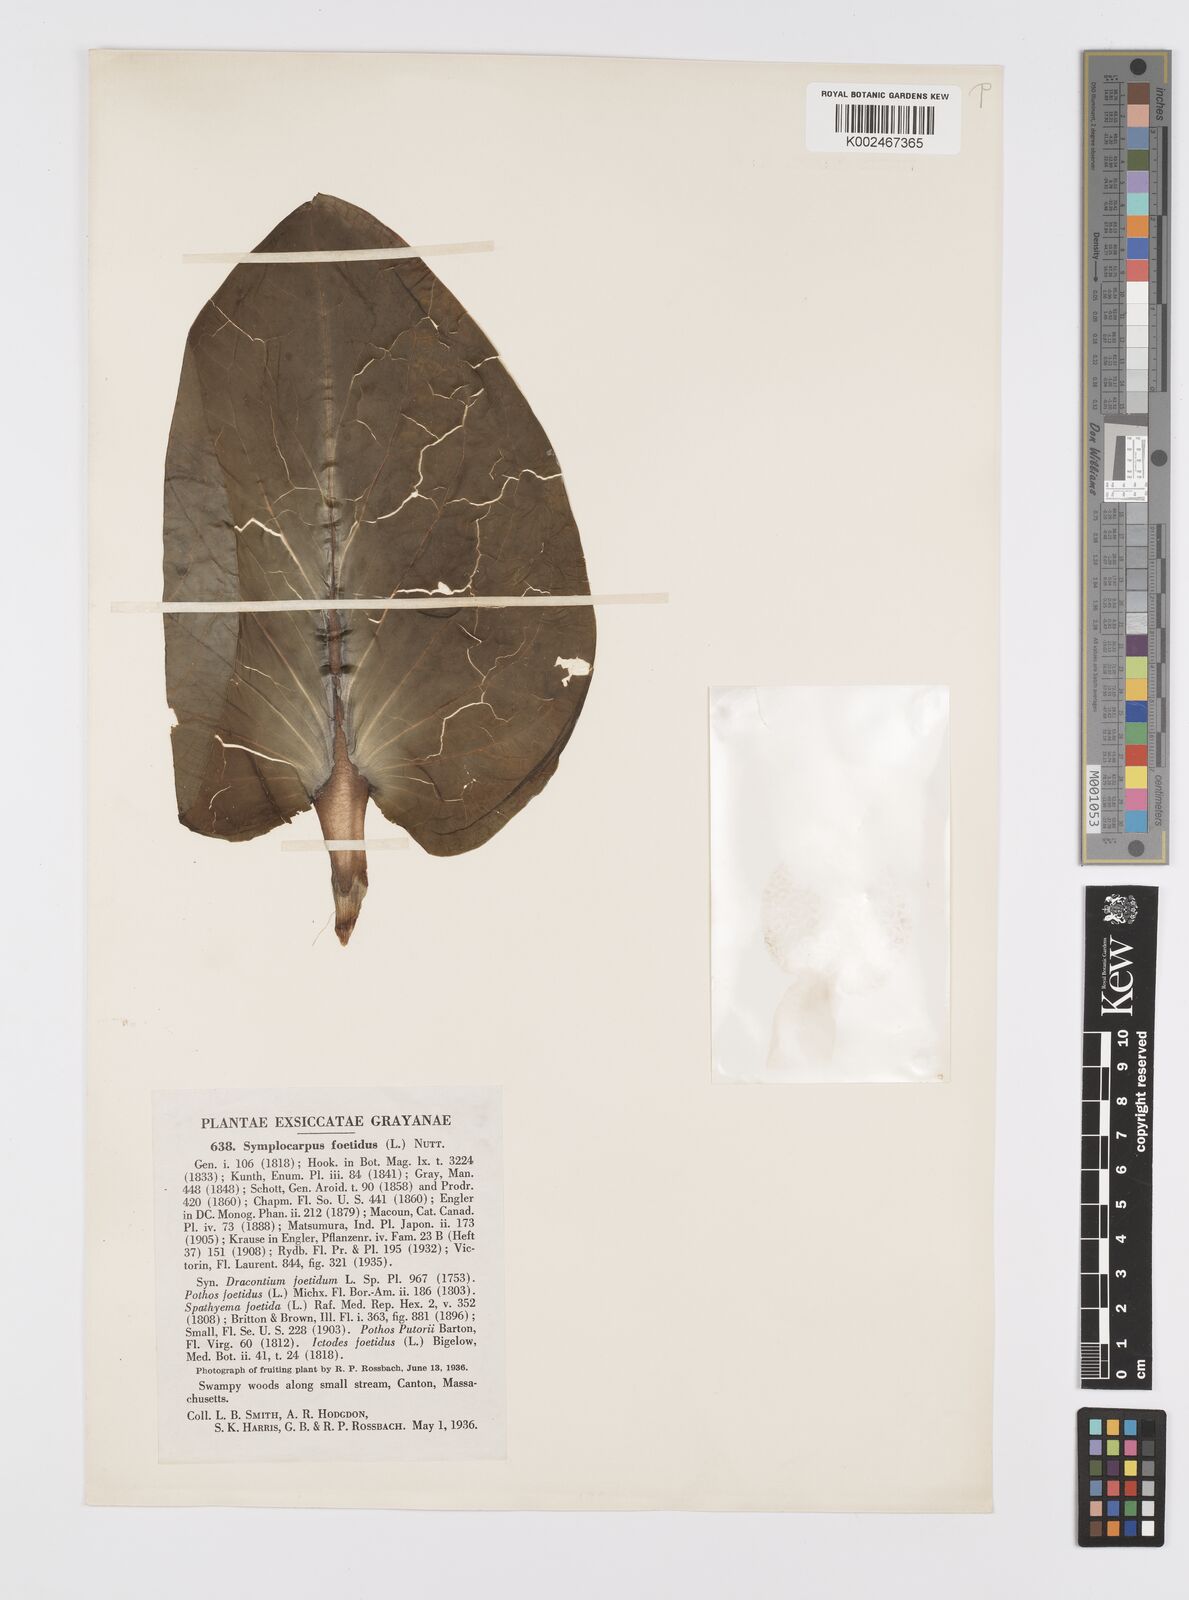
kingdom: Plantae
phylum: Tracheophyta
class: Liliopsida
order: Alismatales
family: Araceae
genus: Symplocarpus
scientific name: Symplocarpus foetidus
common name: Eastern skunk cabbage
